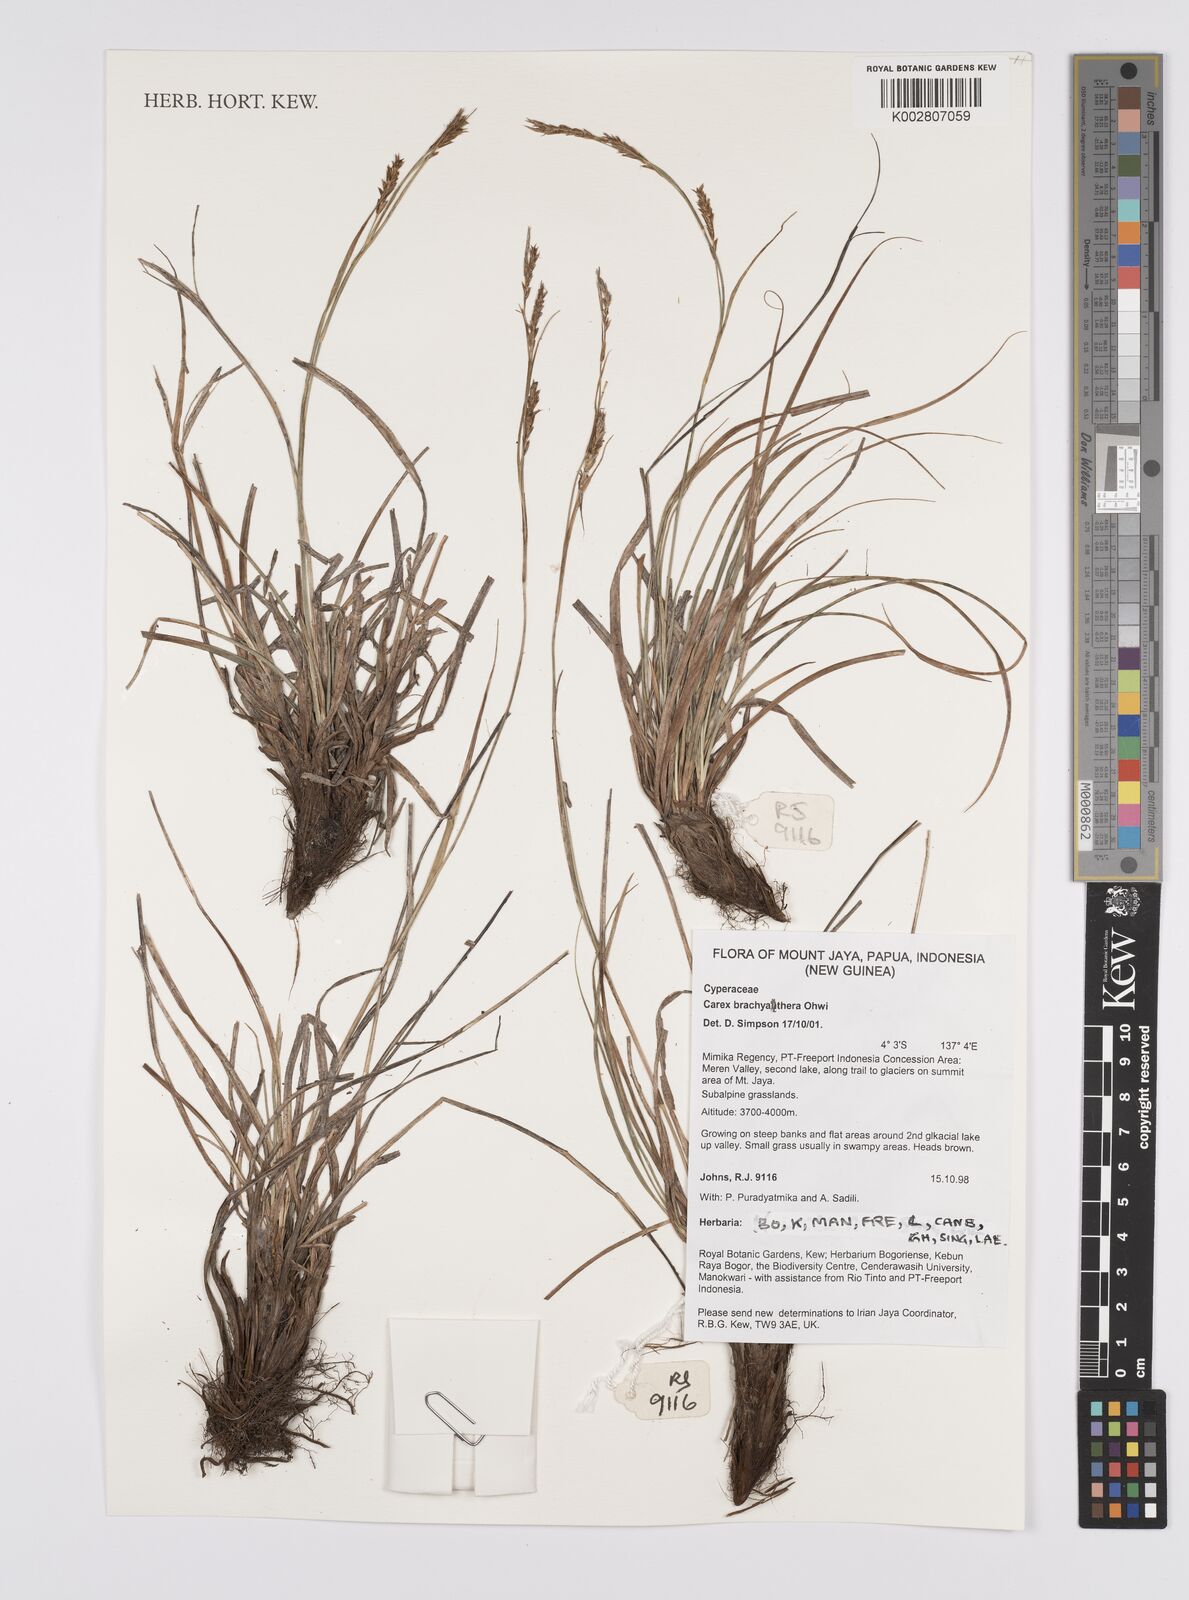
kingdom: Plantae
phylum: Tracheophyta
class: Liliopsida
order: Poales
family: Cyperaceae
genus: Carex
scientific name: Carex brachyanthera
